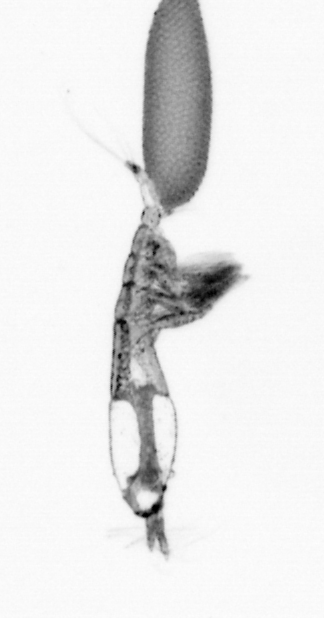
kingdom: Animalia
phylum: Arthropoda
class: Copepoda
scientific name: Copepoda
